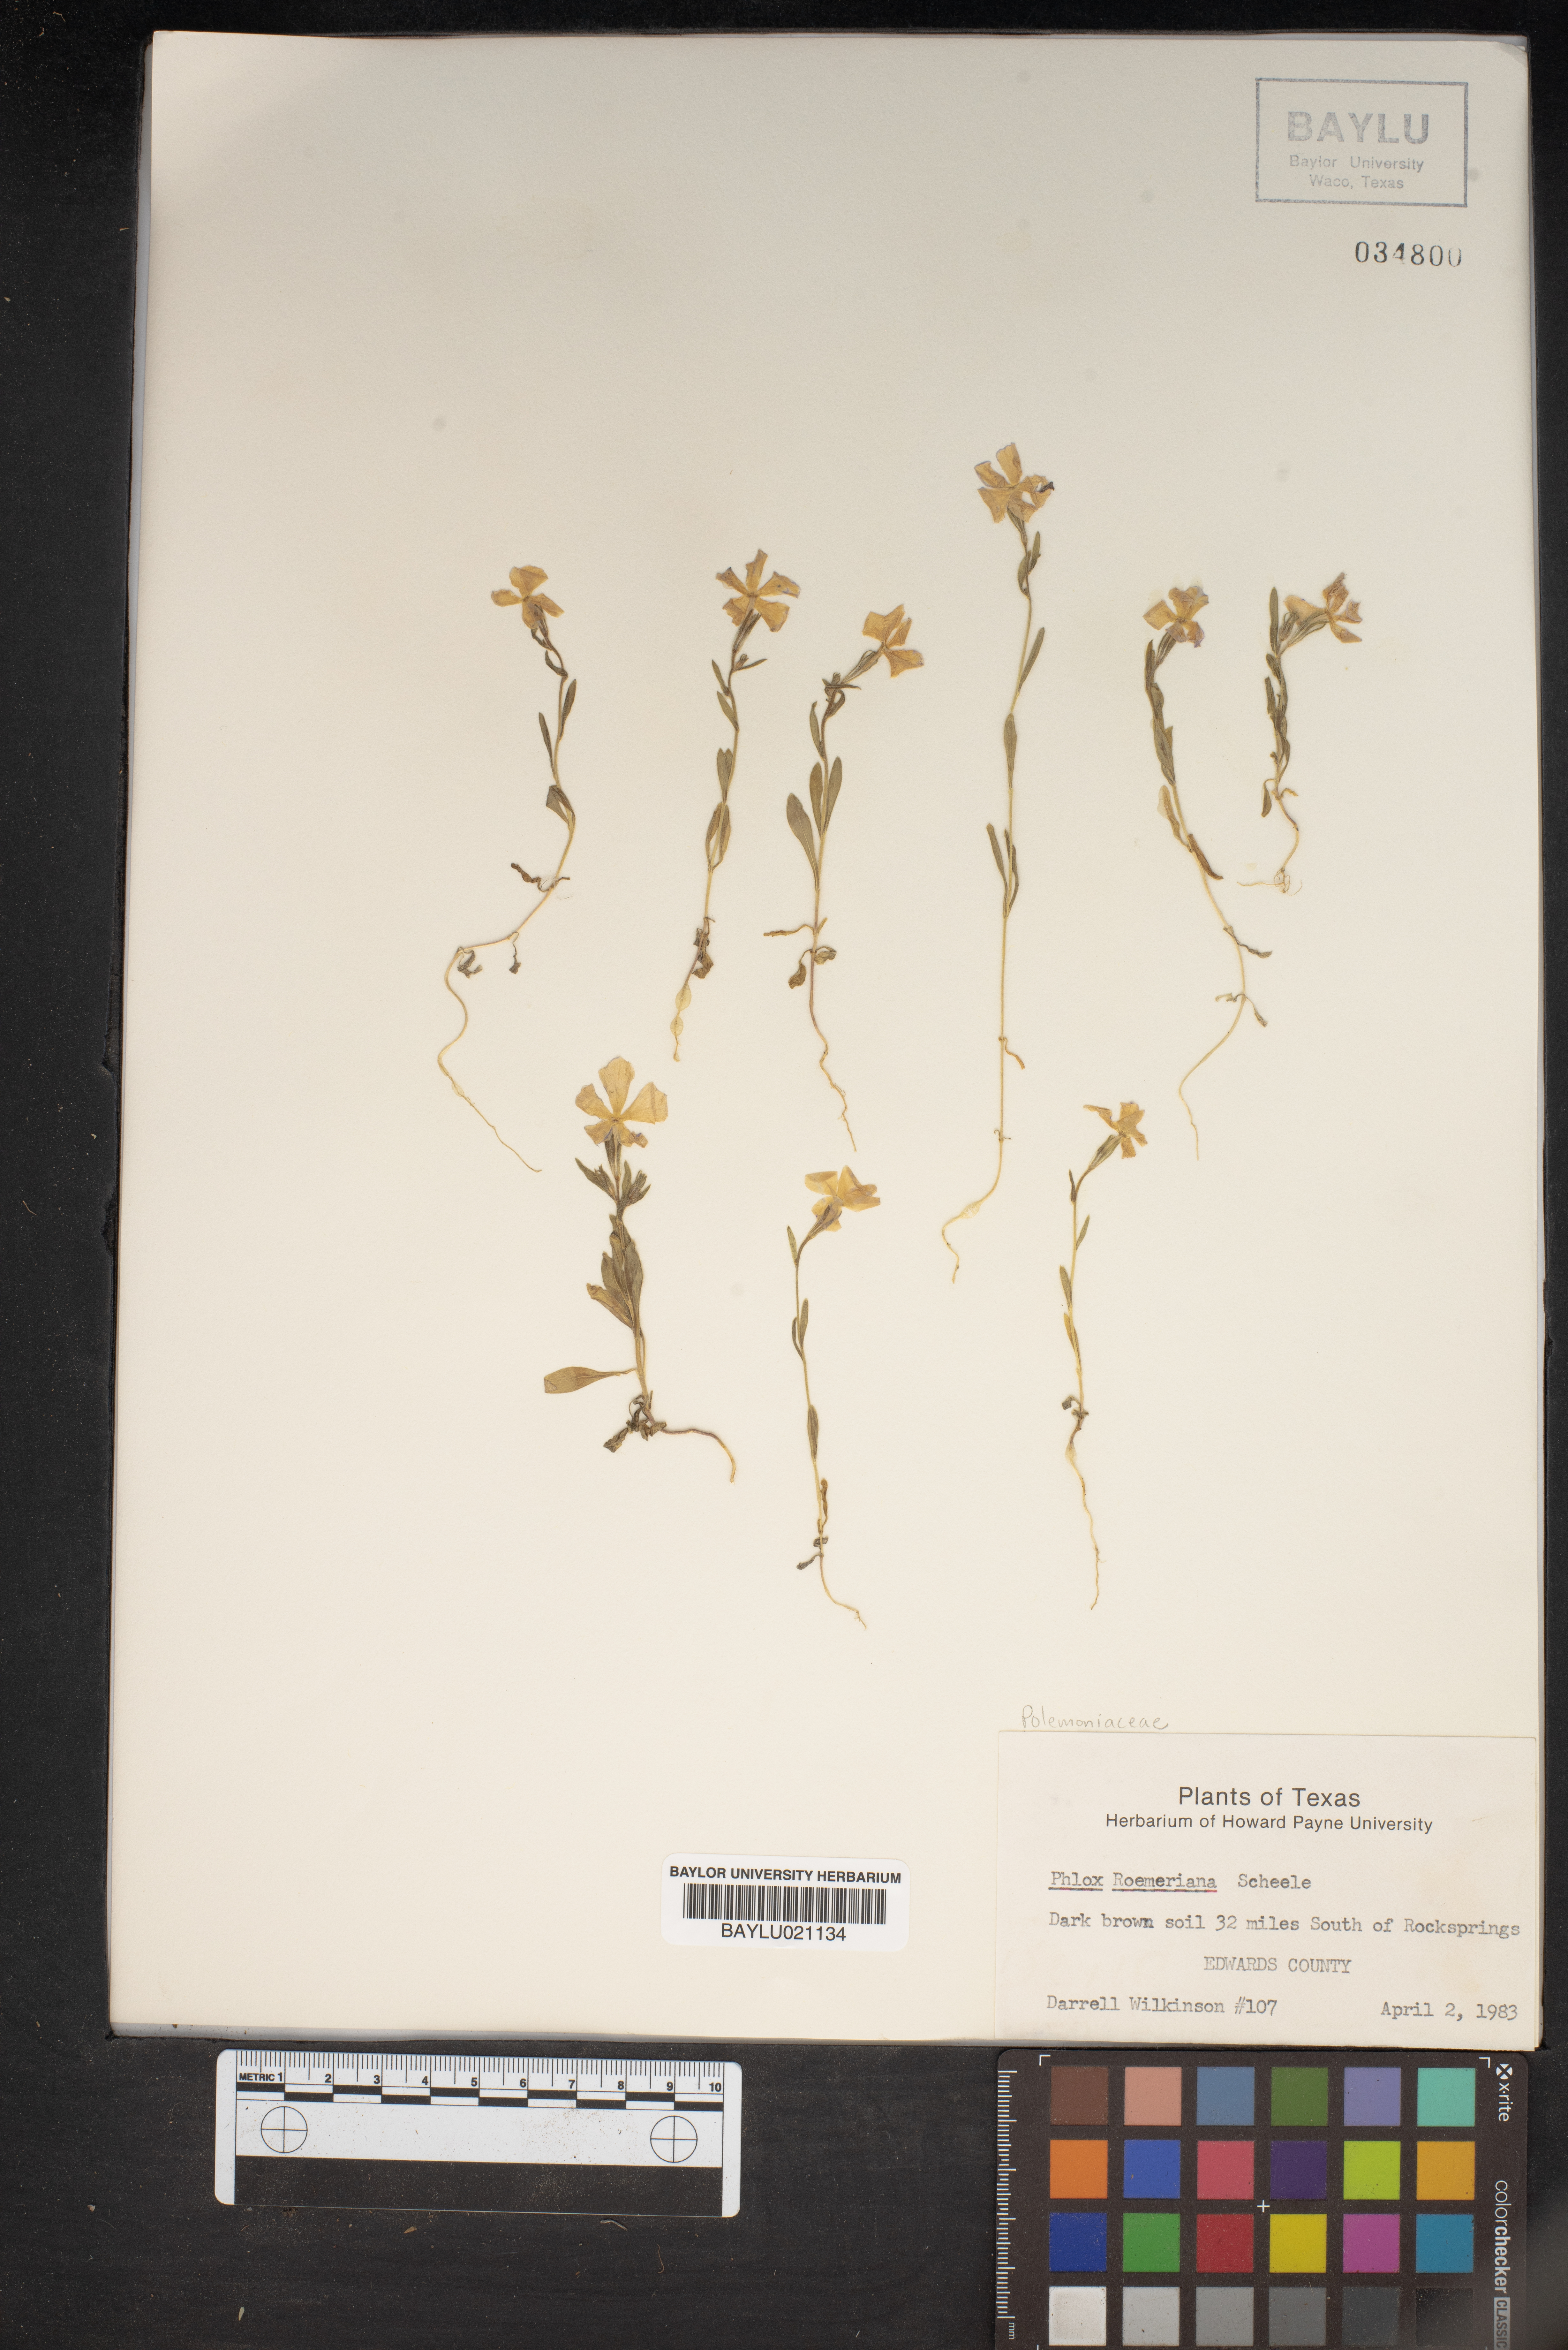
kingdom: Plantae
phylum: Tracheophyta
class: Magnoliopsida
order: Ericales
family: Polemoniaceae
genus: Phlox
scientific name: Phlox roemeriana
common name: Roemer's phlox
